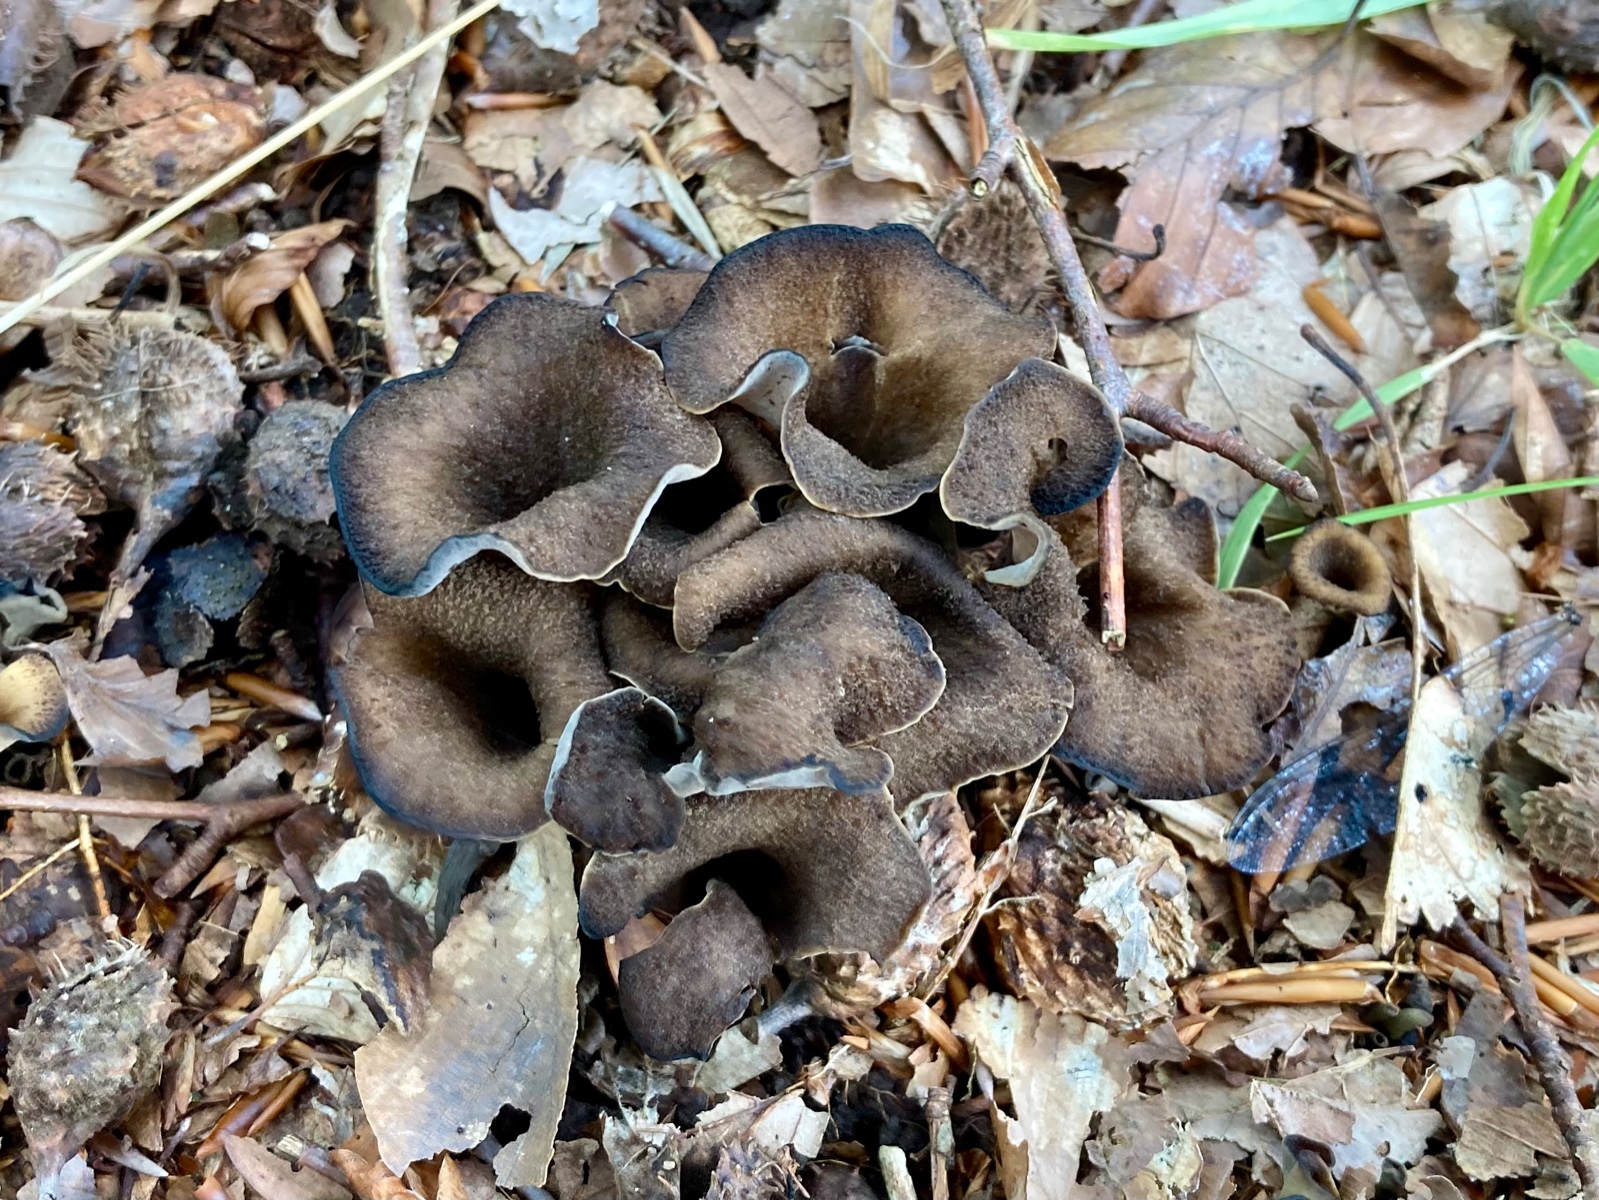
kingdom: Fungi
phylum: Basidiomycota
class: Agaricomycetes
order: Cantharellales
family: Hydnaceae
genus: Craterellus
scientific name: Craterellus cornucopioides
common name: trompetsvamp
